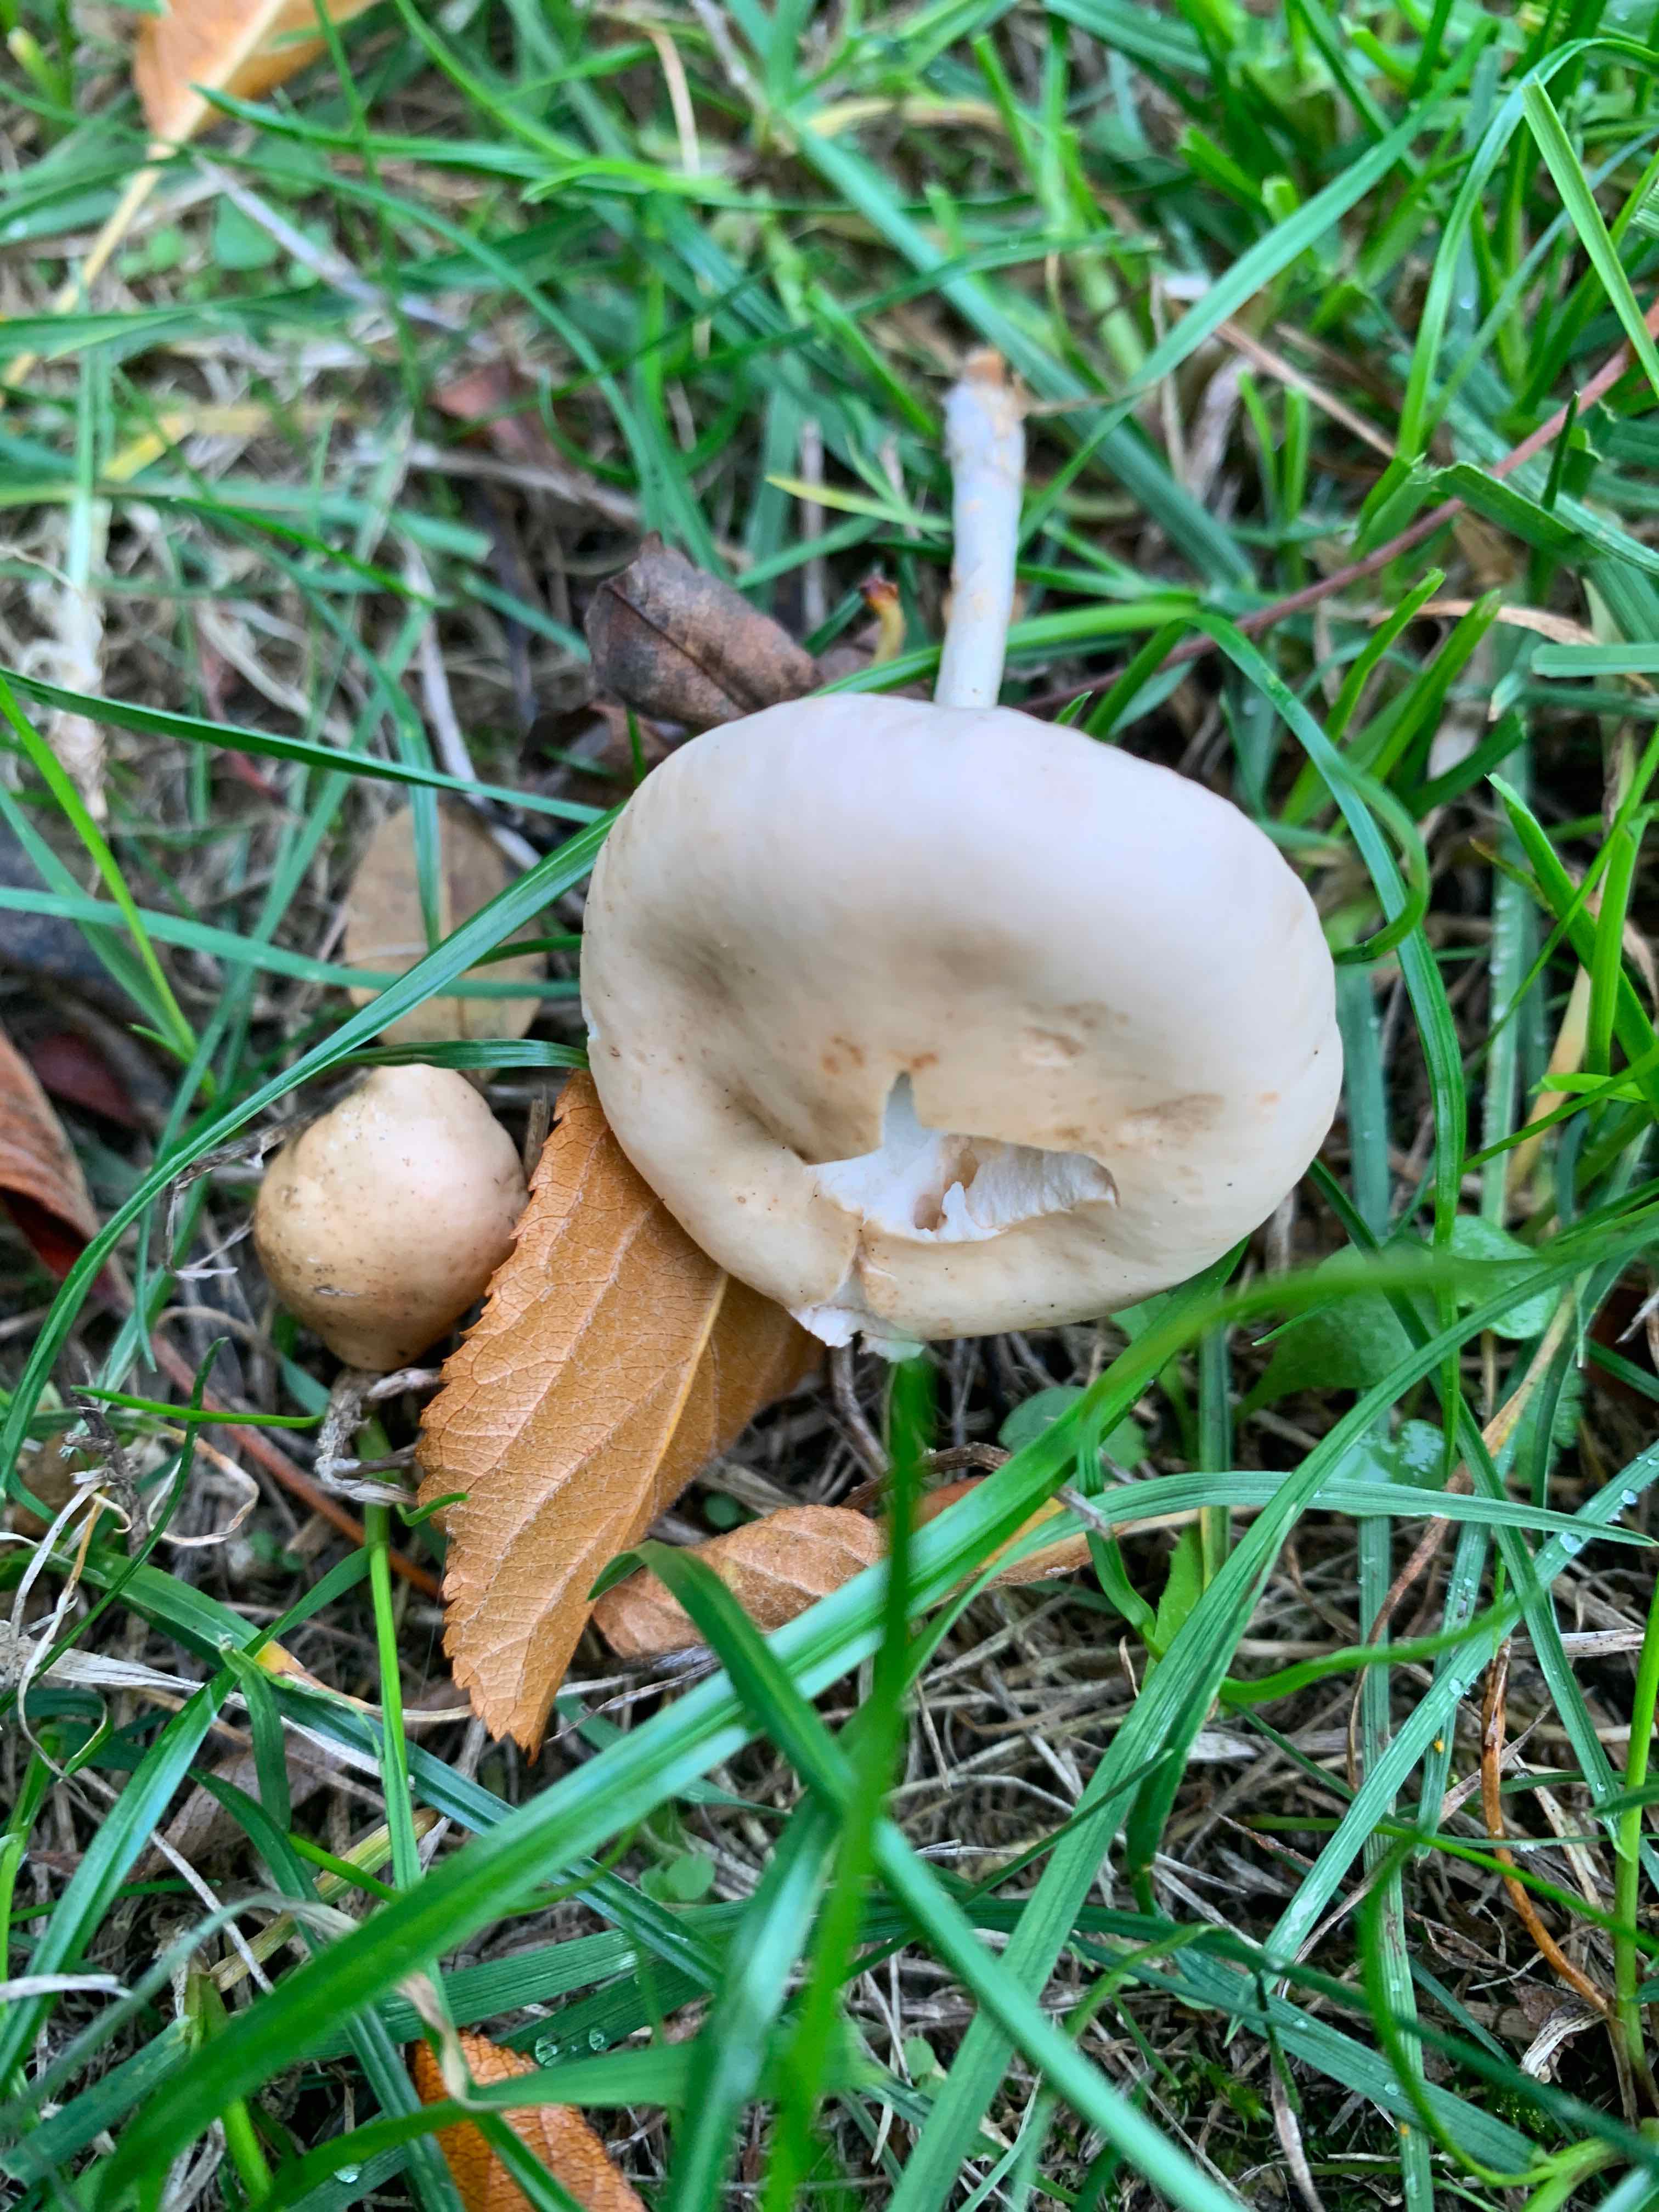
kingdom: Fungi
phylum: Basidiomycota
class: Agaricomycetes
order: Agaricales
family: Physalacriaceae
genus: Hymenopellis
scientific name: Hymenopellis radicata
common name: almindelig pælerodshat
